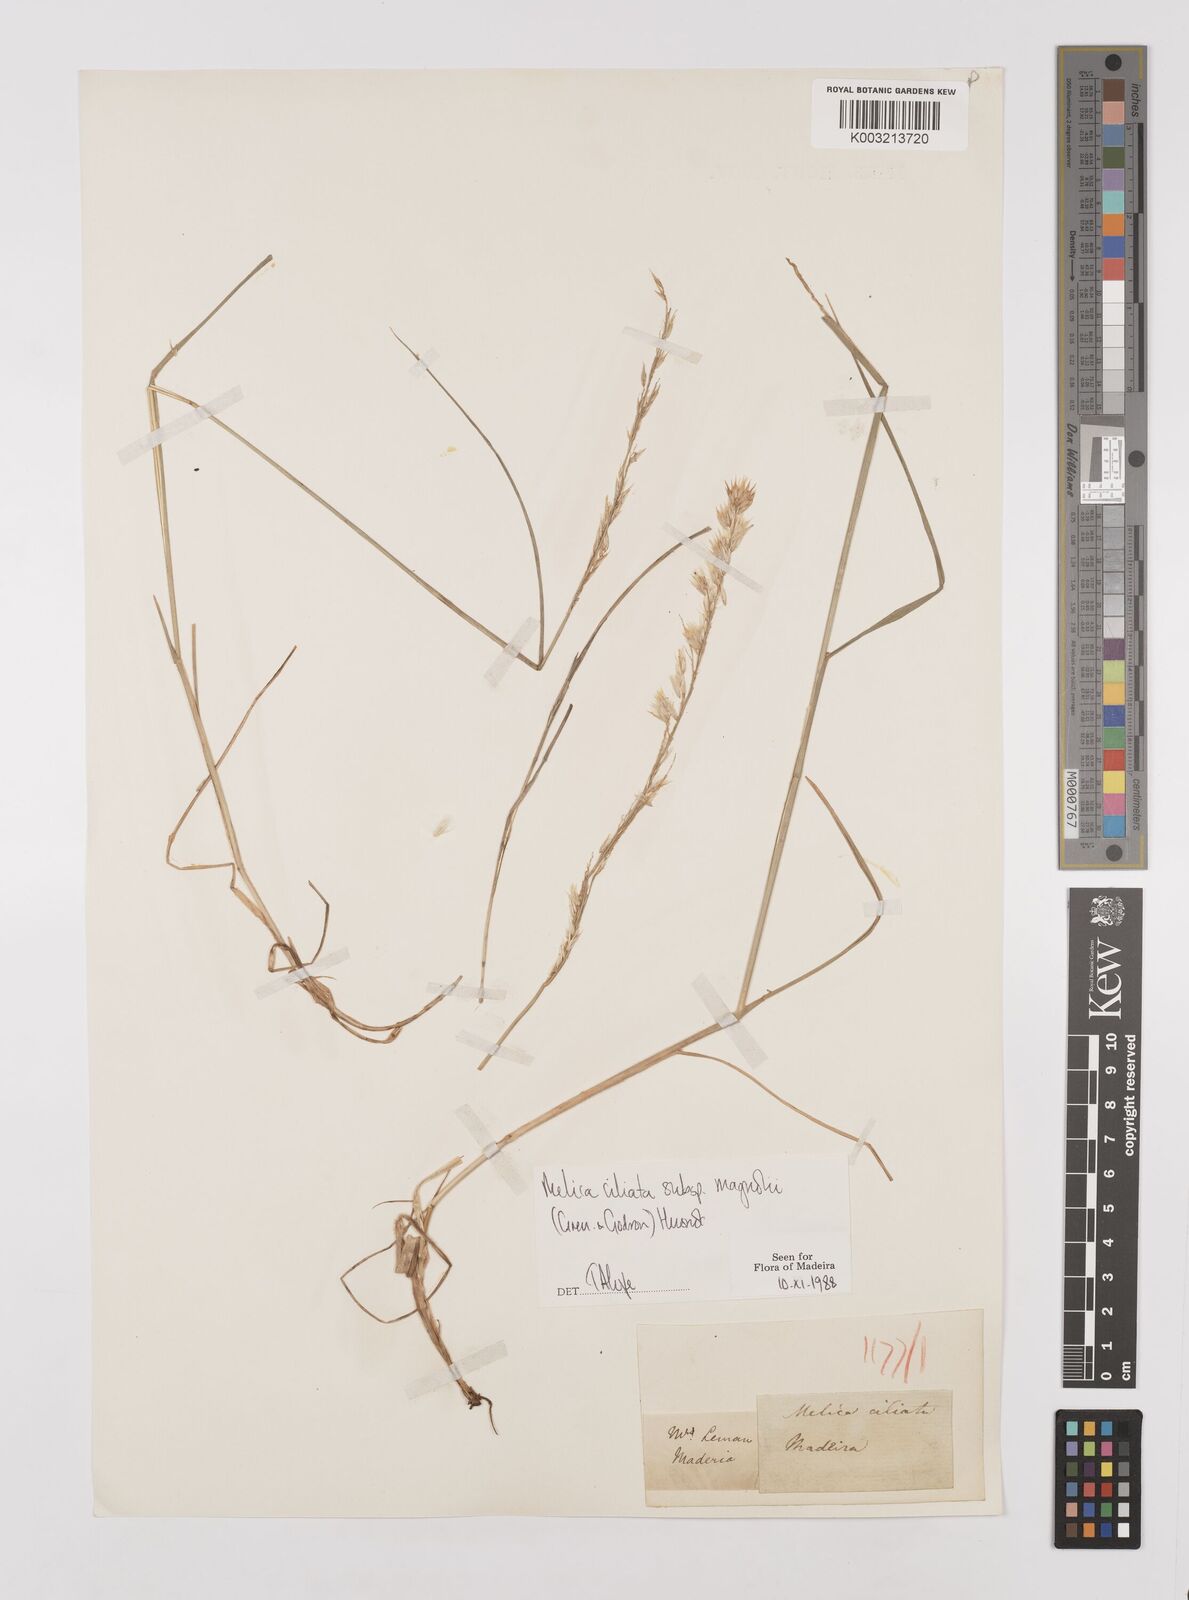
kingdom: Plantae
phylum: Tracheophyta
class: Liliopsida
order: Poales
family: Poaceae
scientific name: Poaceae
